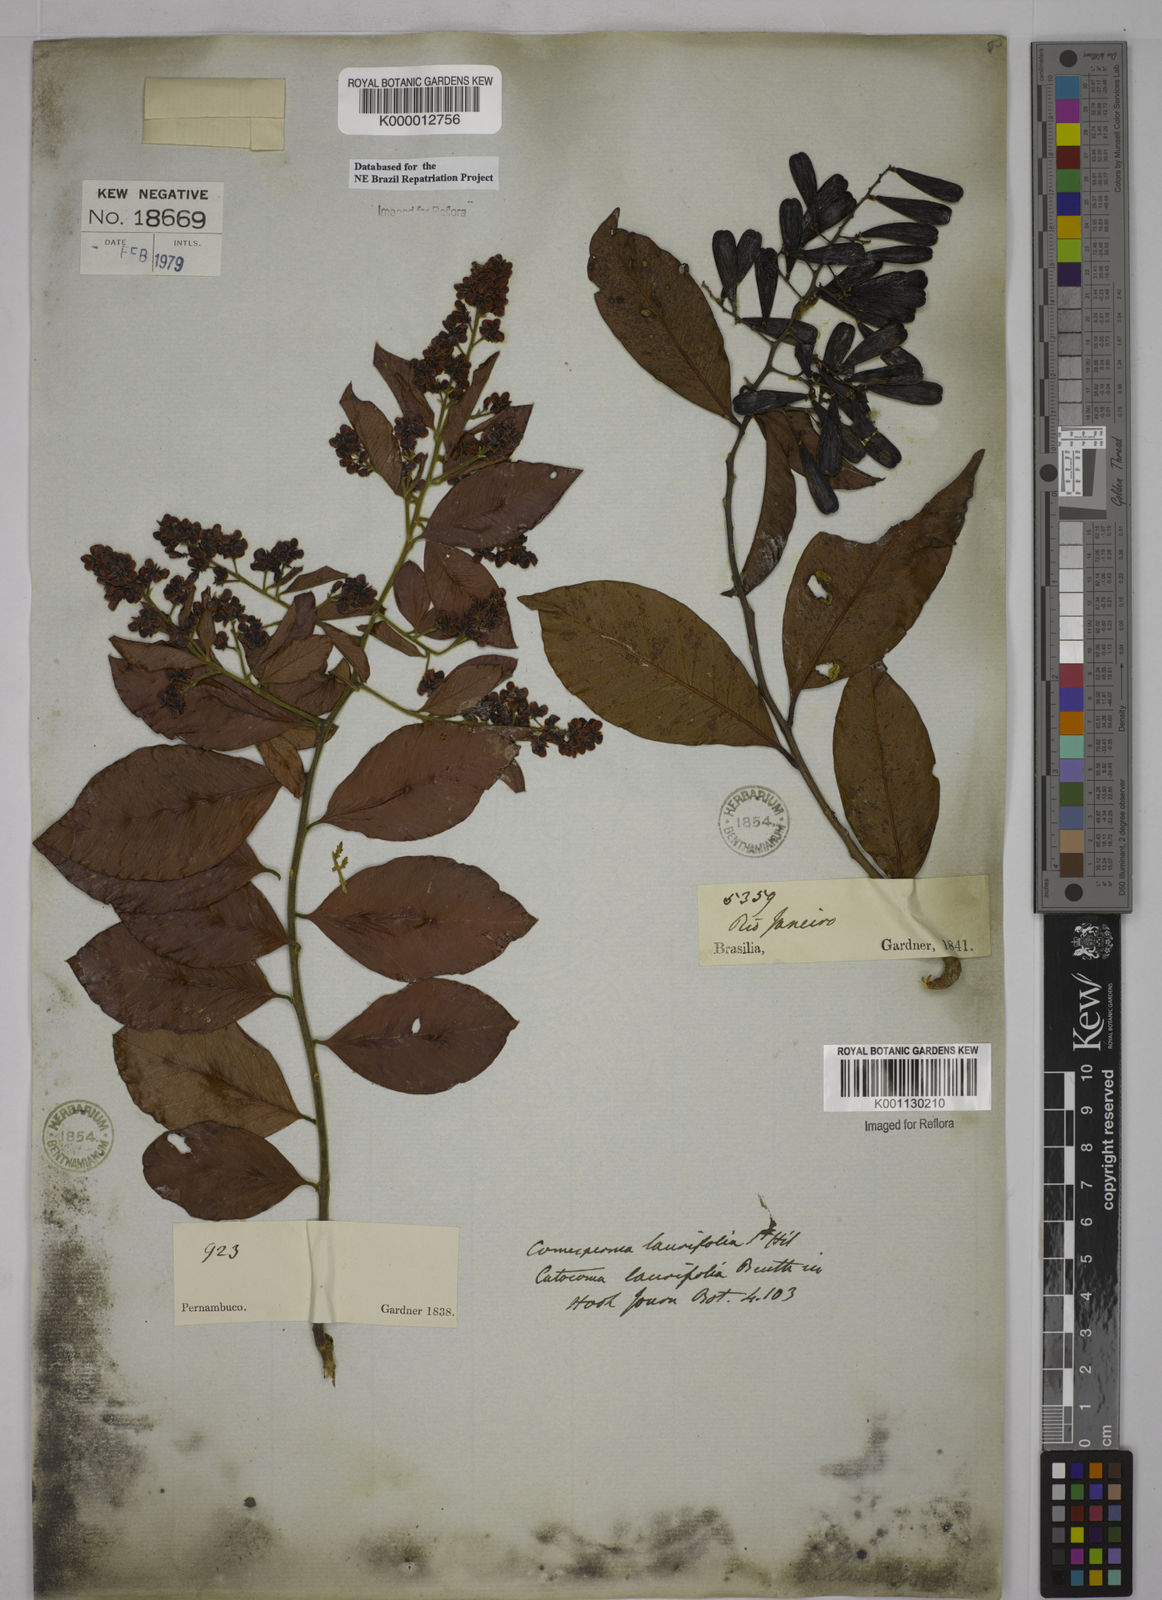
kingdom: Plantae
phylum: Tracheophyta
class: Magnoliopsida
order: Fabales
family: Polygalaceae
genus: Bredemeyera
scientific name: Bredemeyera laurifolia
